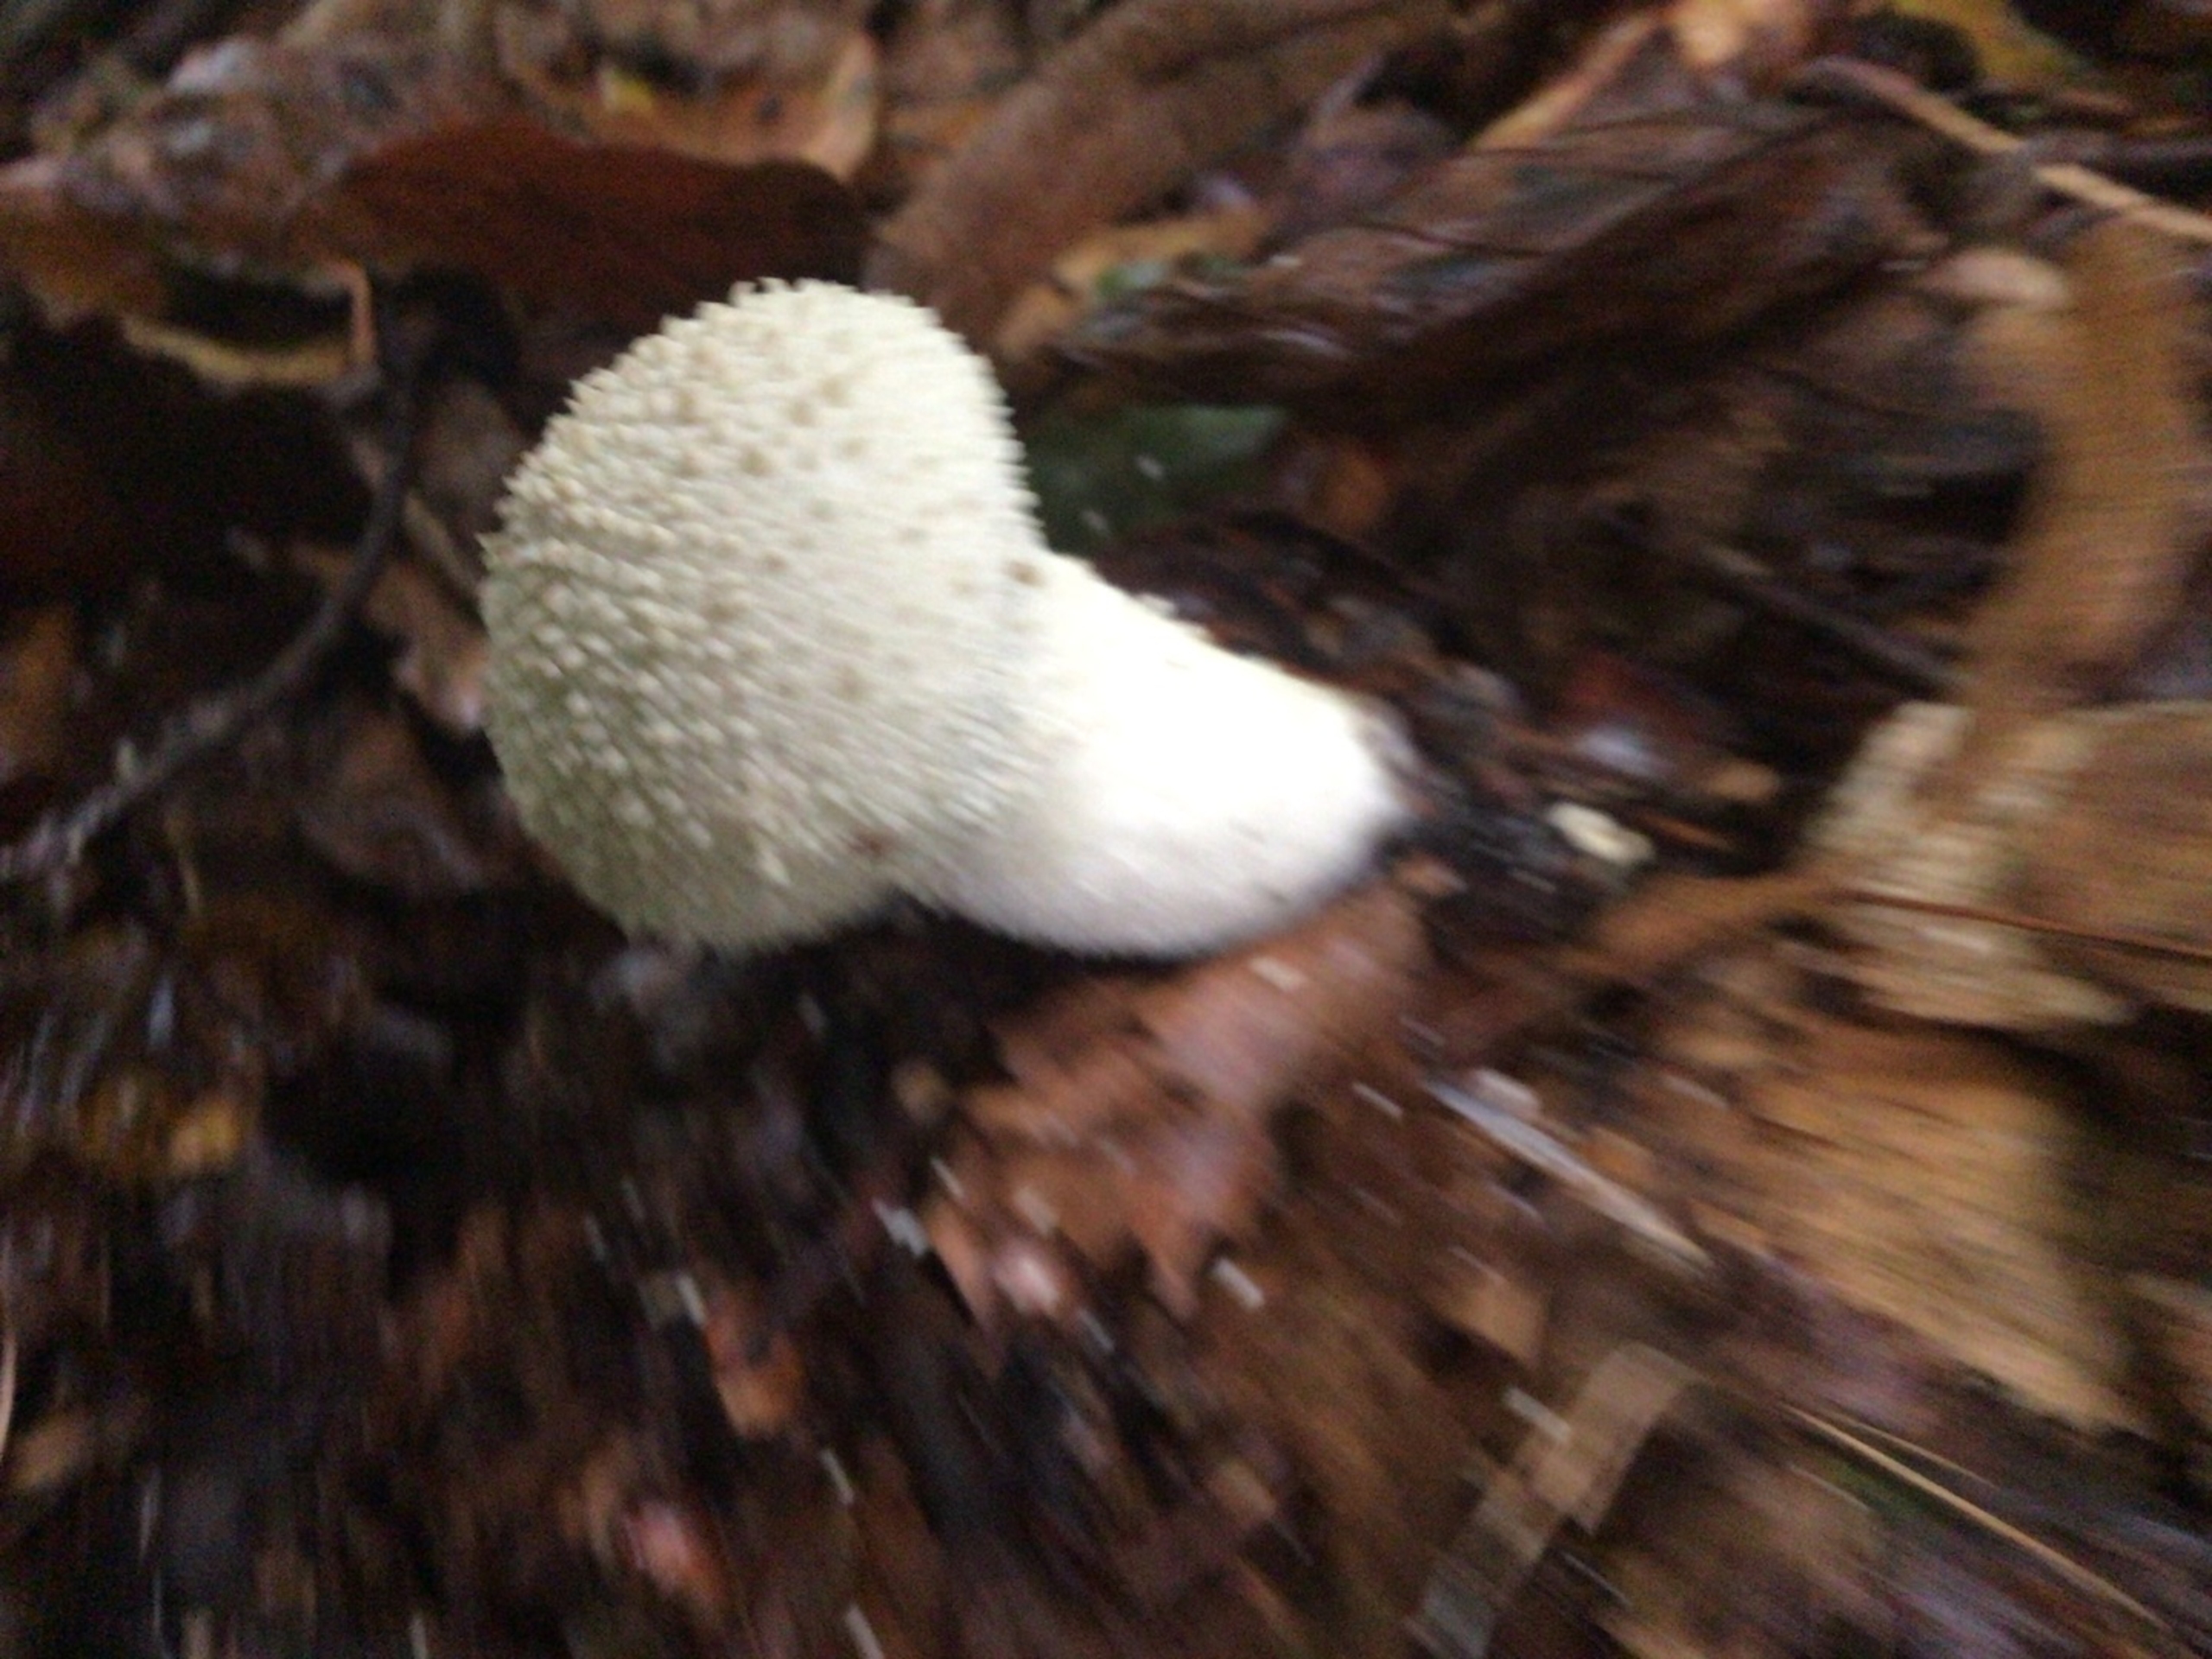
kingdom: Fungi
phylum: Basidiomycota
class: Agaricomycetes
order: Agaricales
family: Lycoperdaceae
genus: Lycoperdon
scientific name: Lycoperdon perlatum
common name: Krystal-støvbold
